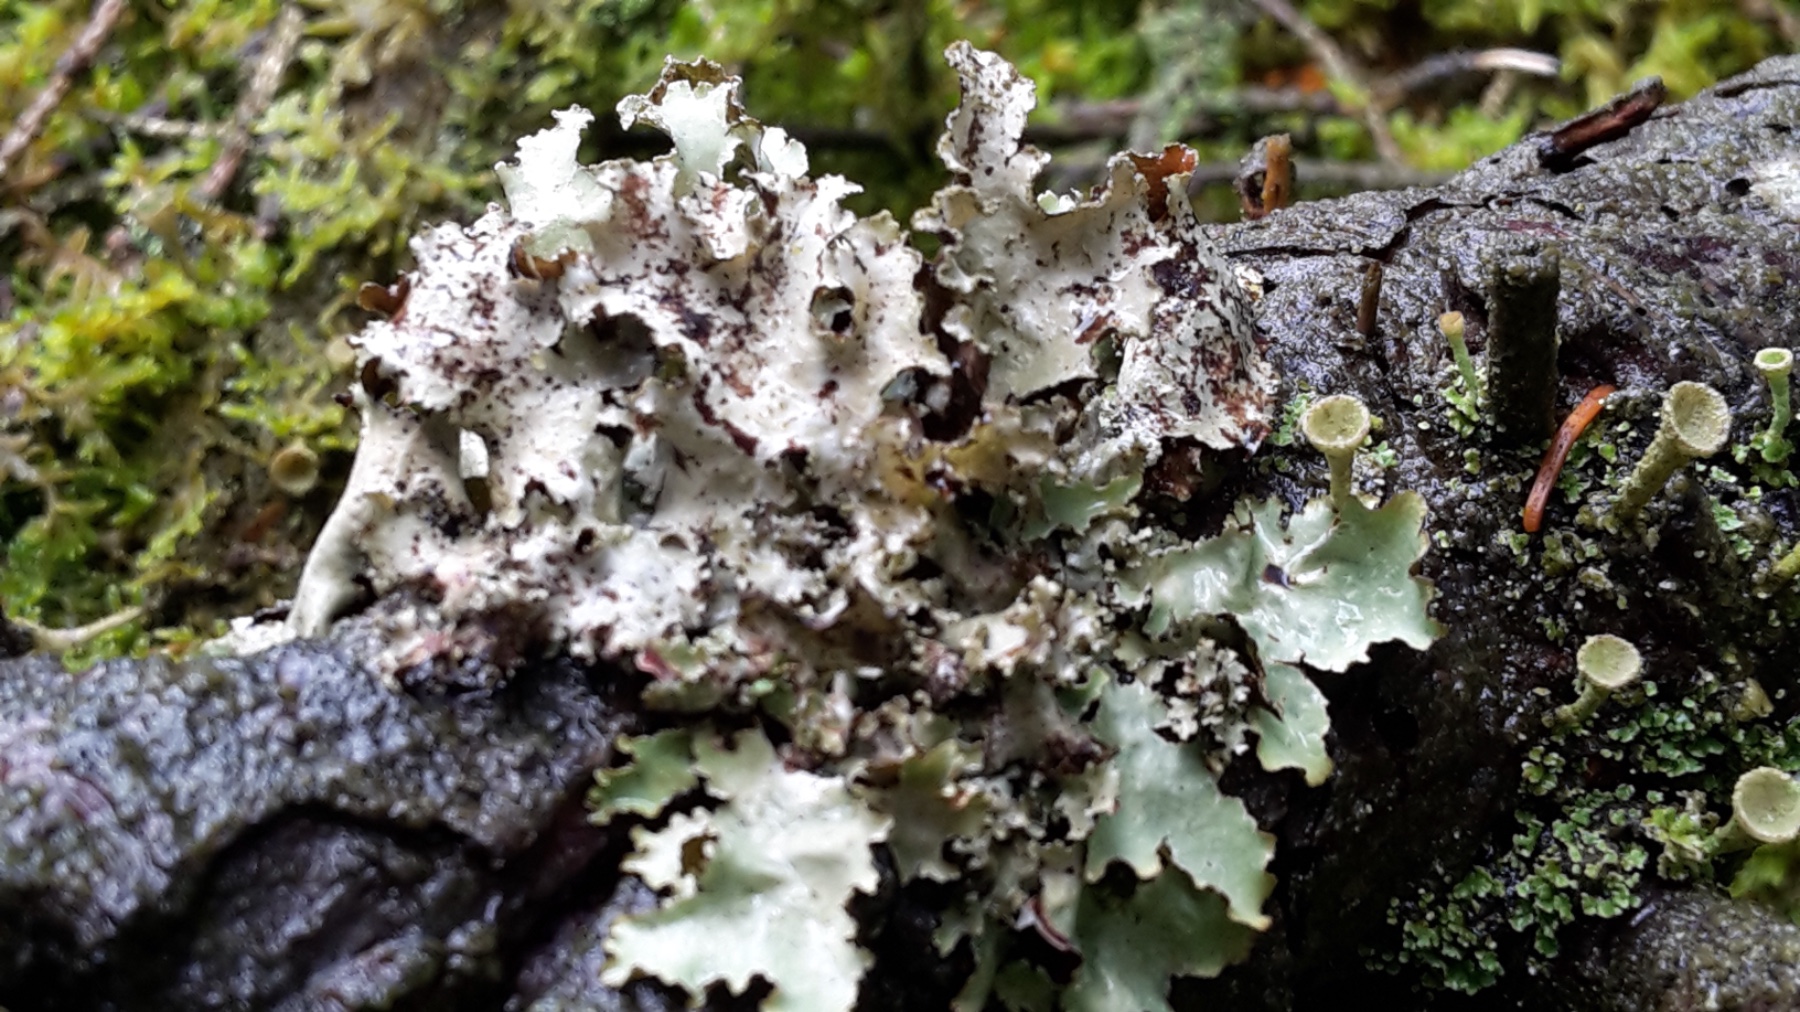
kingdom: Fungi
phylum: Ascomycota
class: Lecanoromycetes
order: Lecanorales
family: Parmeliaceae
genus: Platismatia
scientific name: Platismatia glauca
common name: blågrå papirlav
